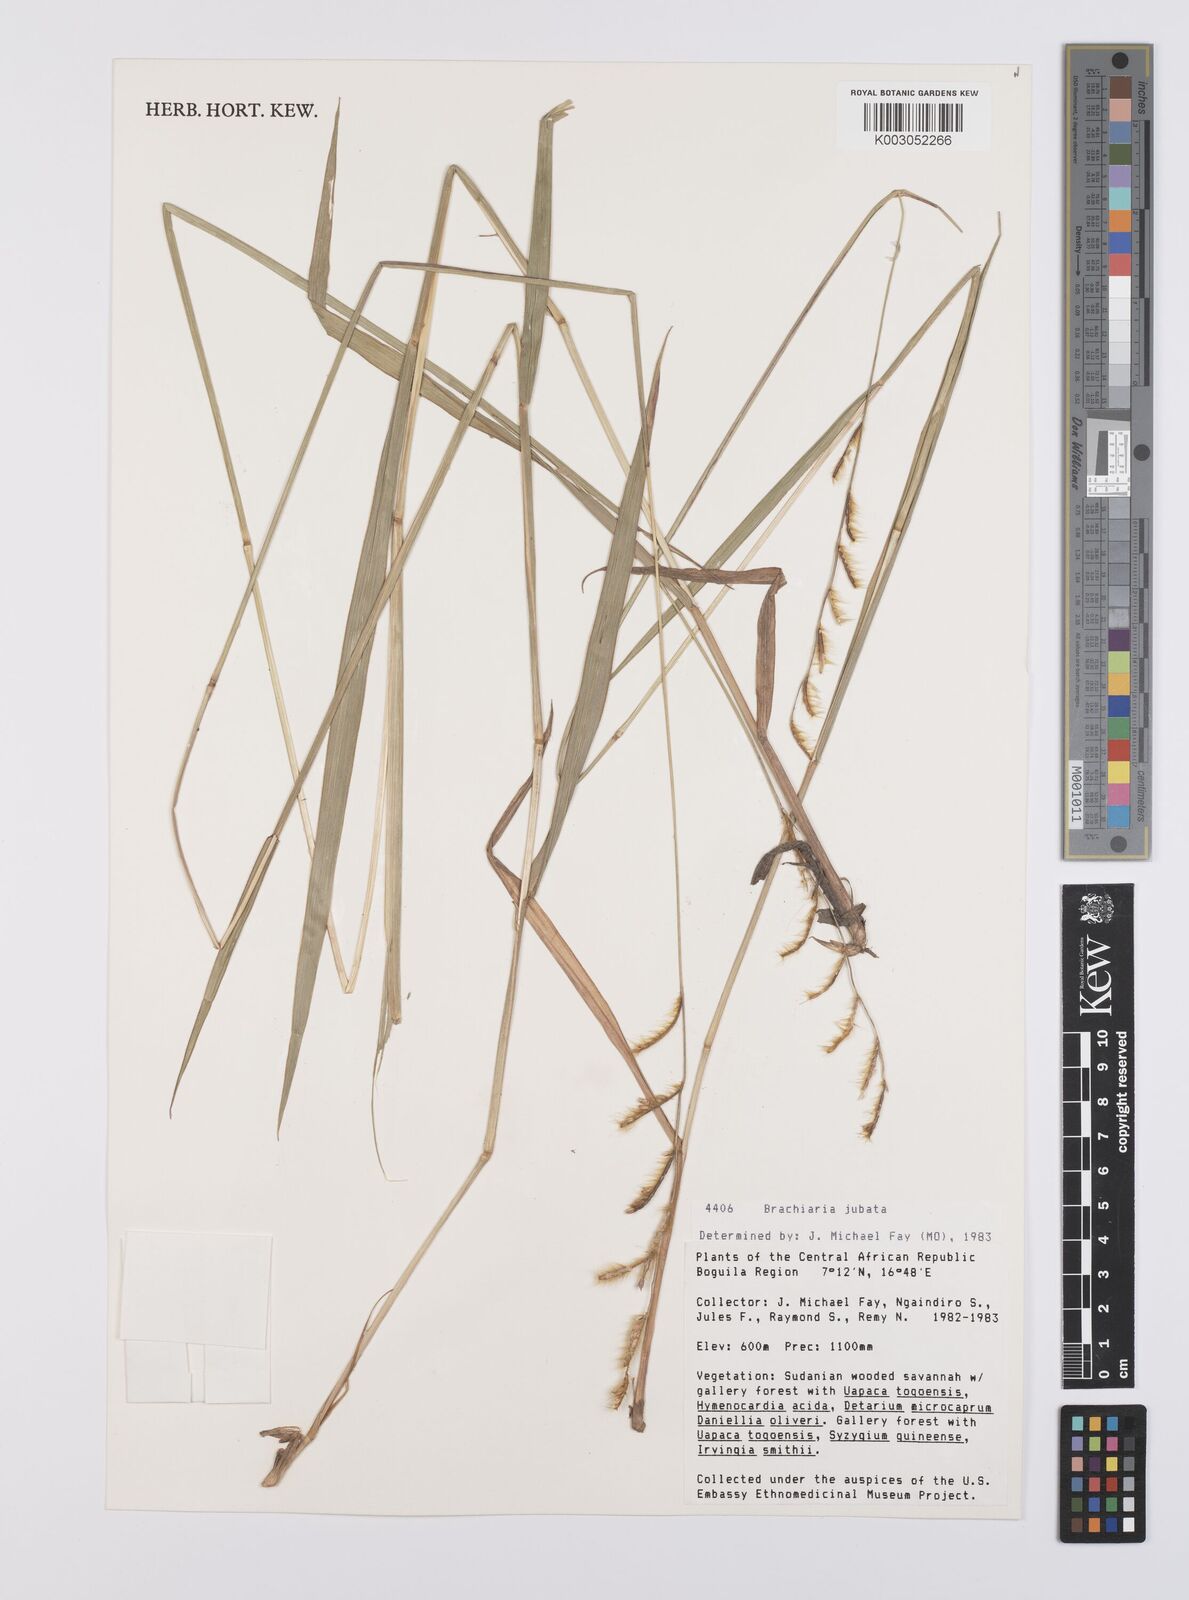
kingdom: Plantae
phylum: Tracheophyta
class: Liliopsida
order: Poales
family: Poaceae
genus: Urochloa
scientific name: Urochloa jubata
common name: Buffalograss
